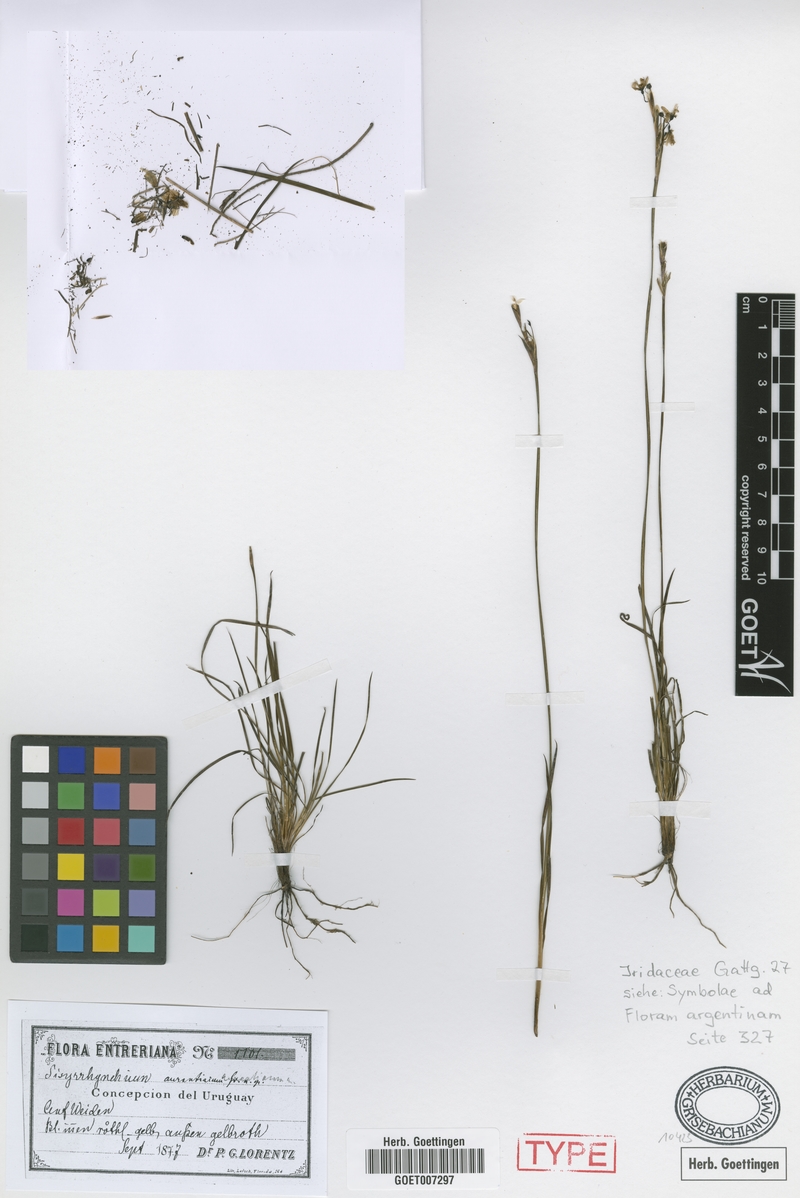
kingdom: Plantae
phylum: Tracheophyta
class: Liliopsida
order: Asparagales
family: Iridaceae
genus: Sisyrinchium
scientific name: Sisyrinchium avenaceum
